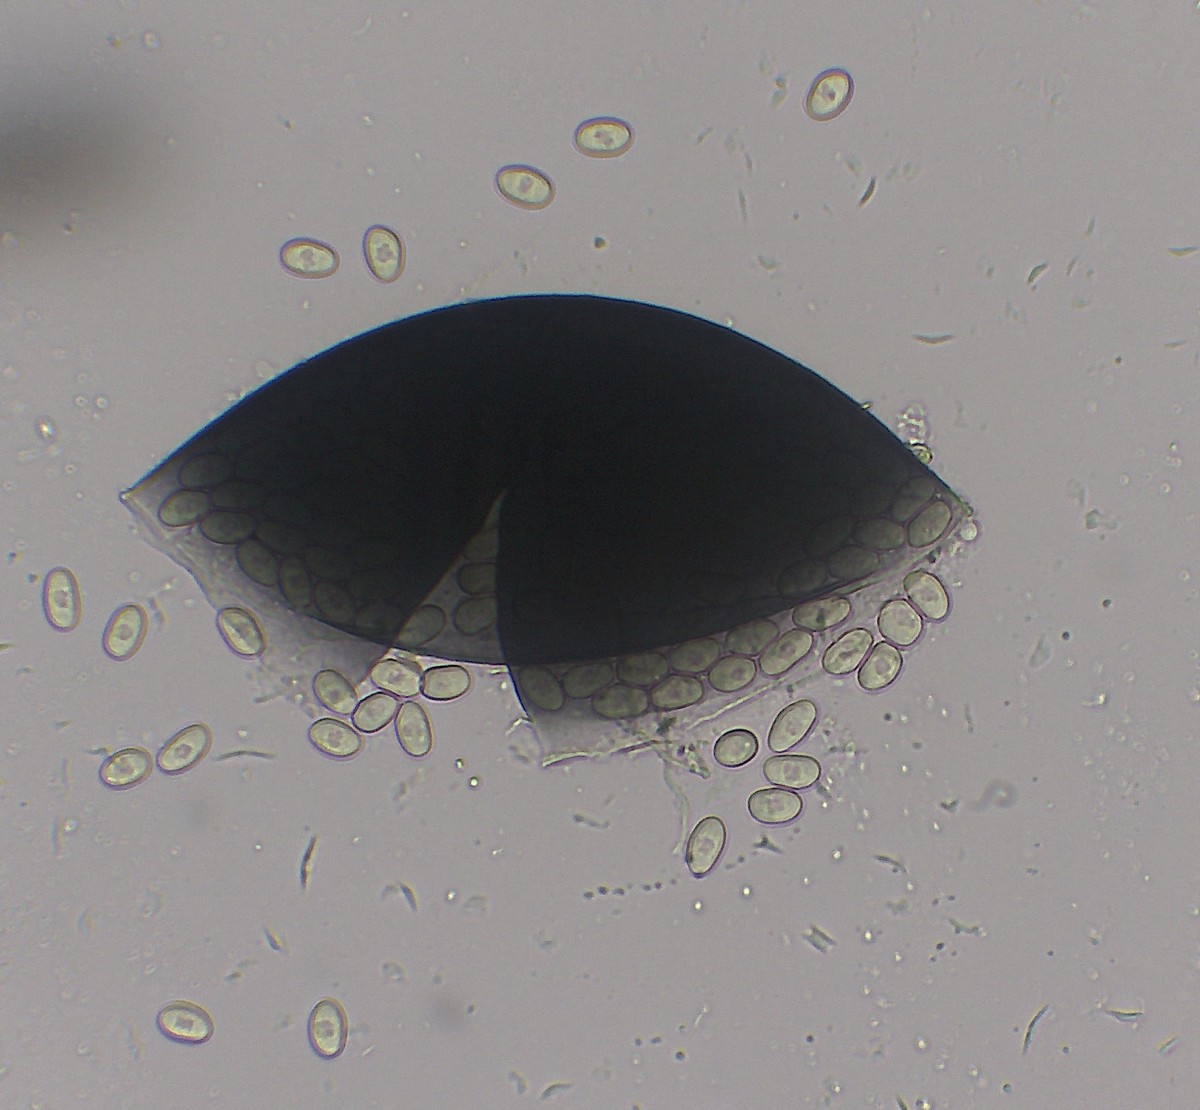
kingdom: Fungi
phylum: Mucoromycota
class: Mucoromycetes
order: Mucorales
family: Pilobolaceae
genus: Pilobolus
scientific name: Pilobolus crystallinus
